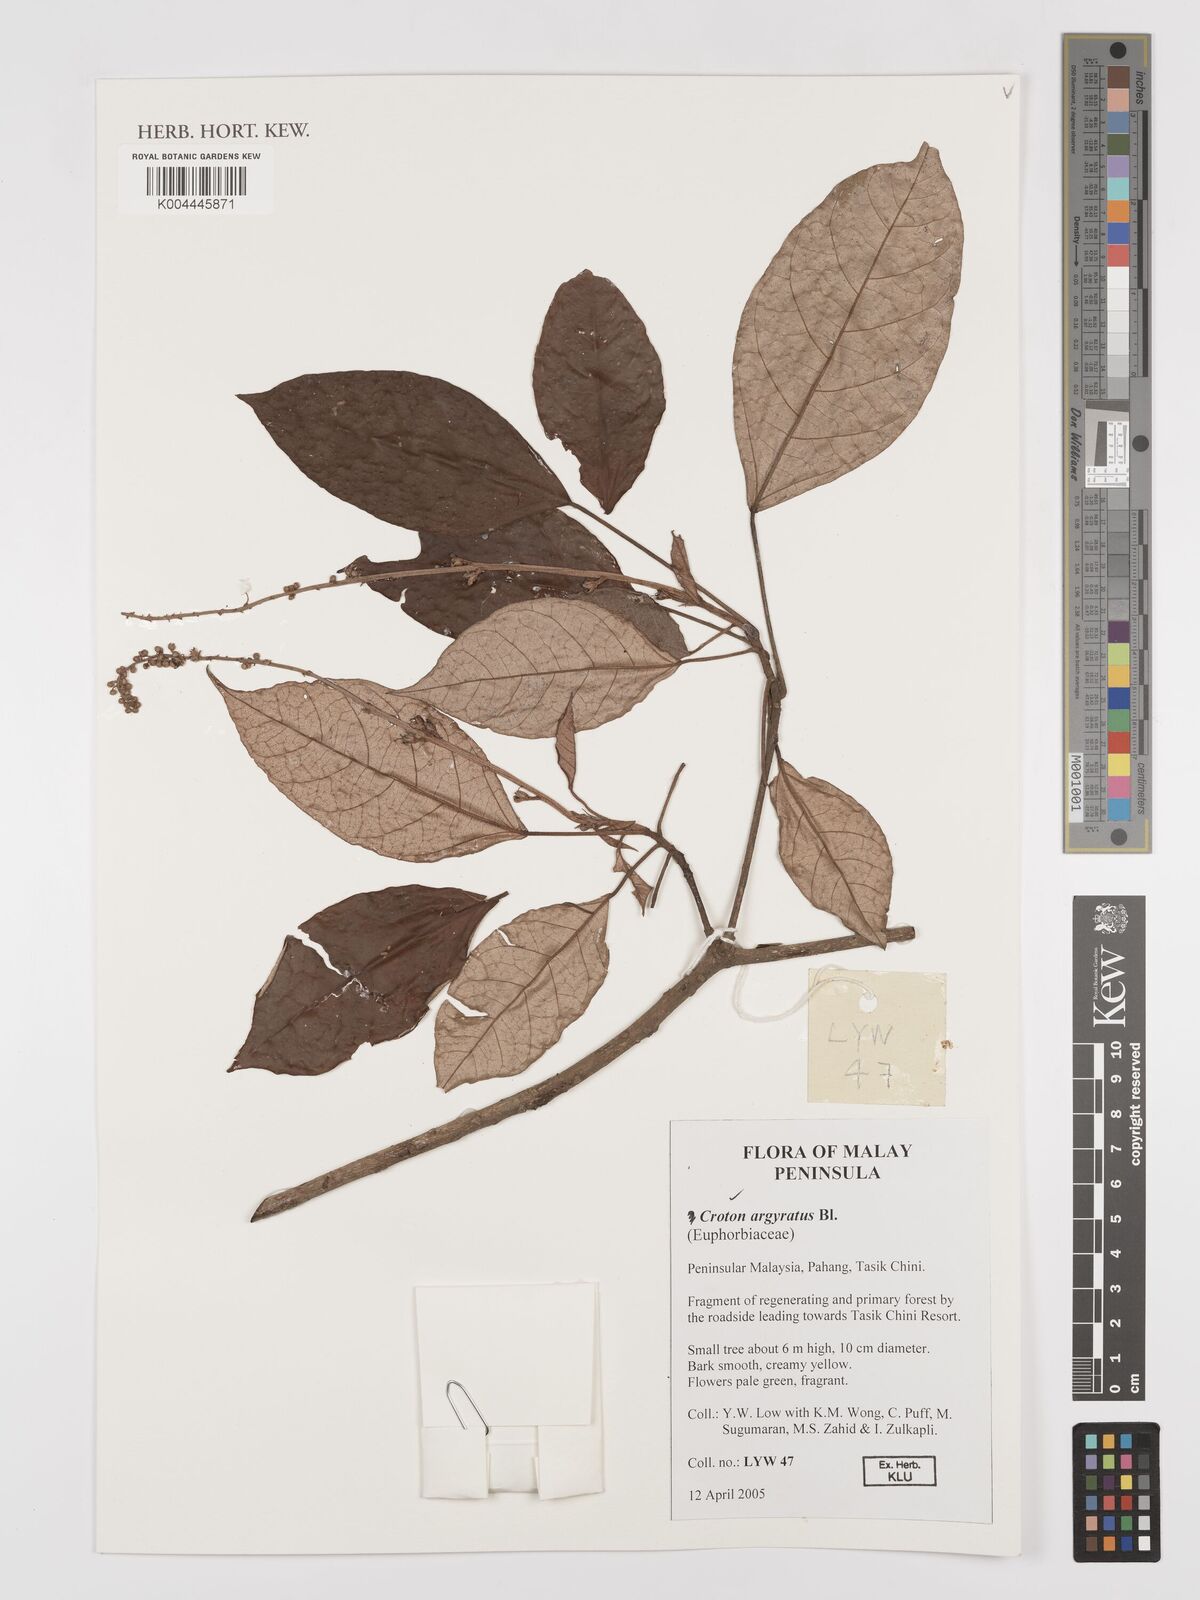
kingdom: Plantae
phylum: Tracheophyta
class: Magnoliopsida
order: Malpighiales
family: Euphorbiaceae
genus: Croton
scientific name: Croton argyratus
